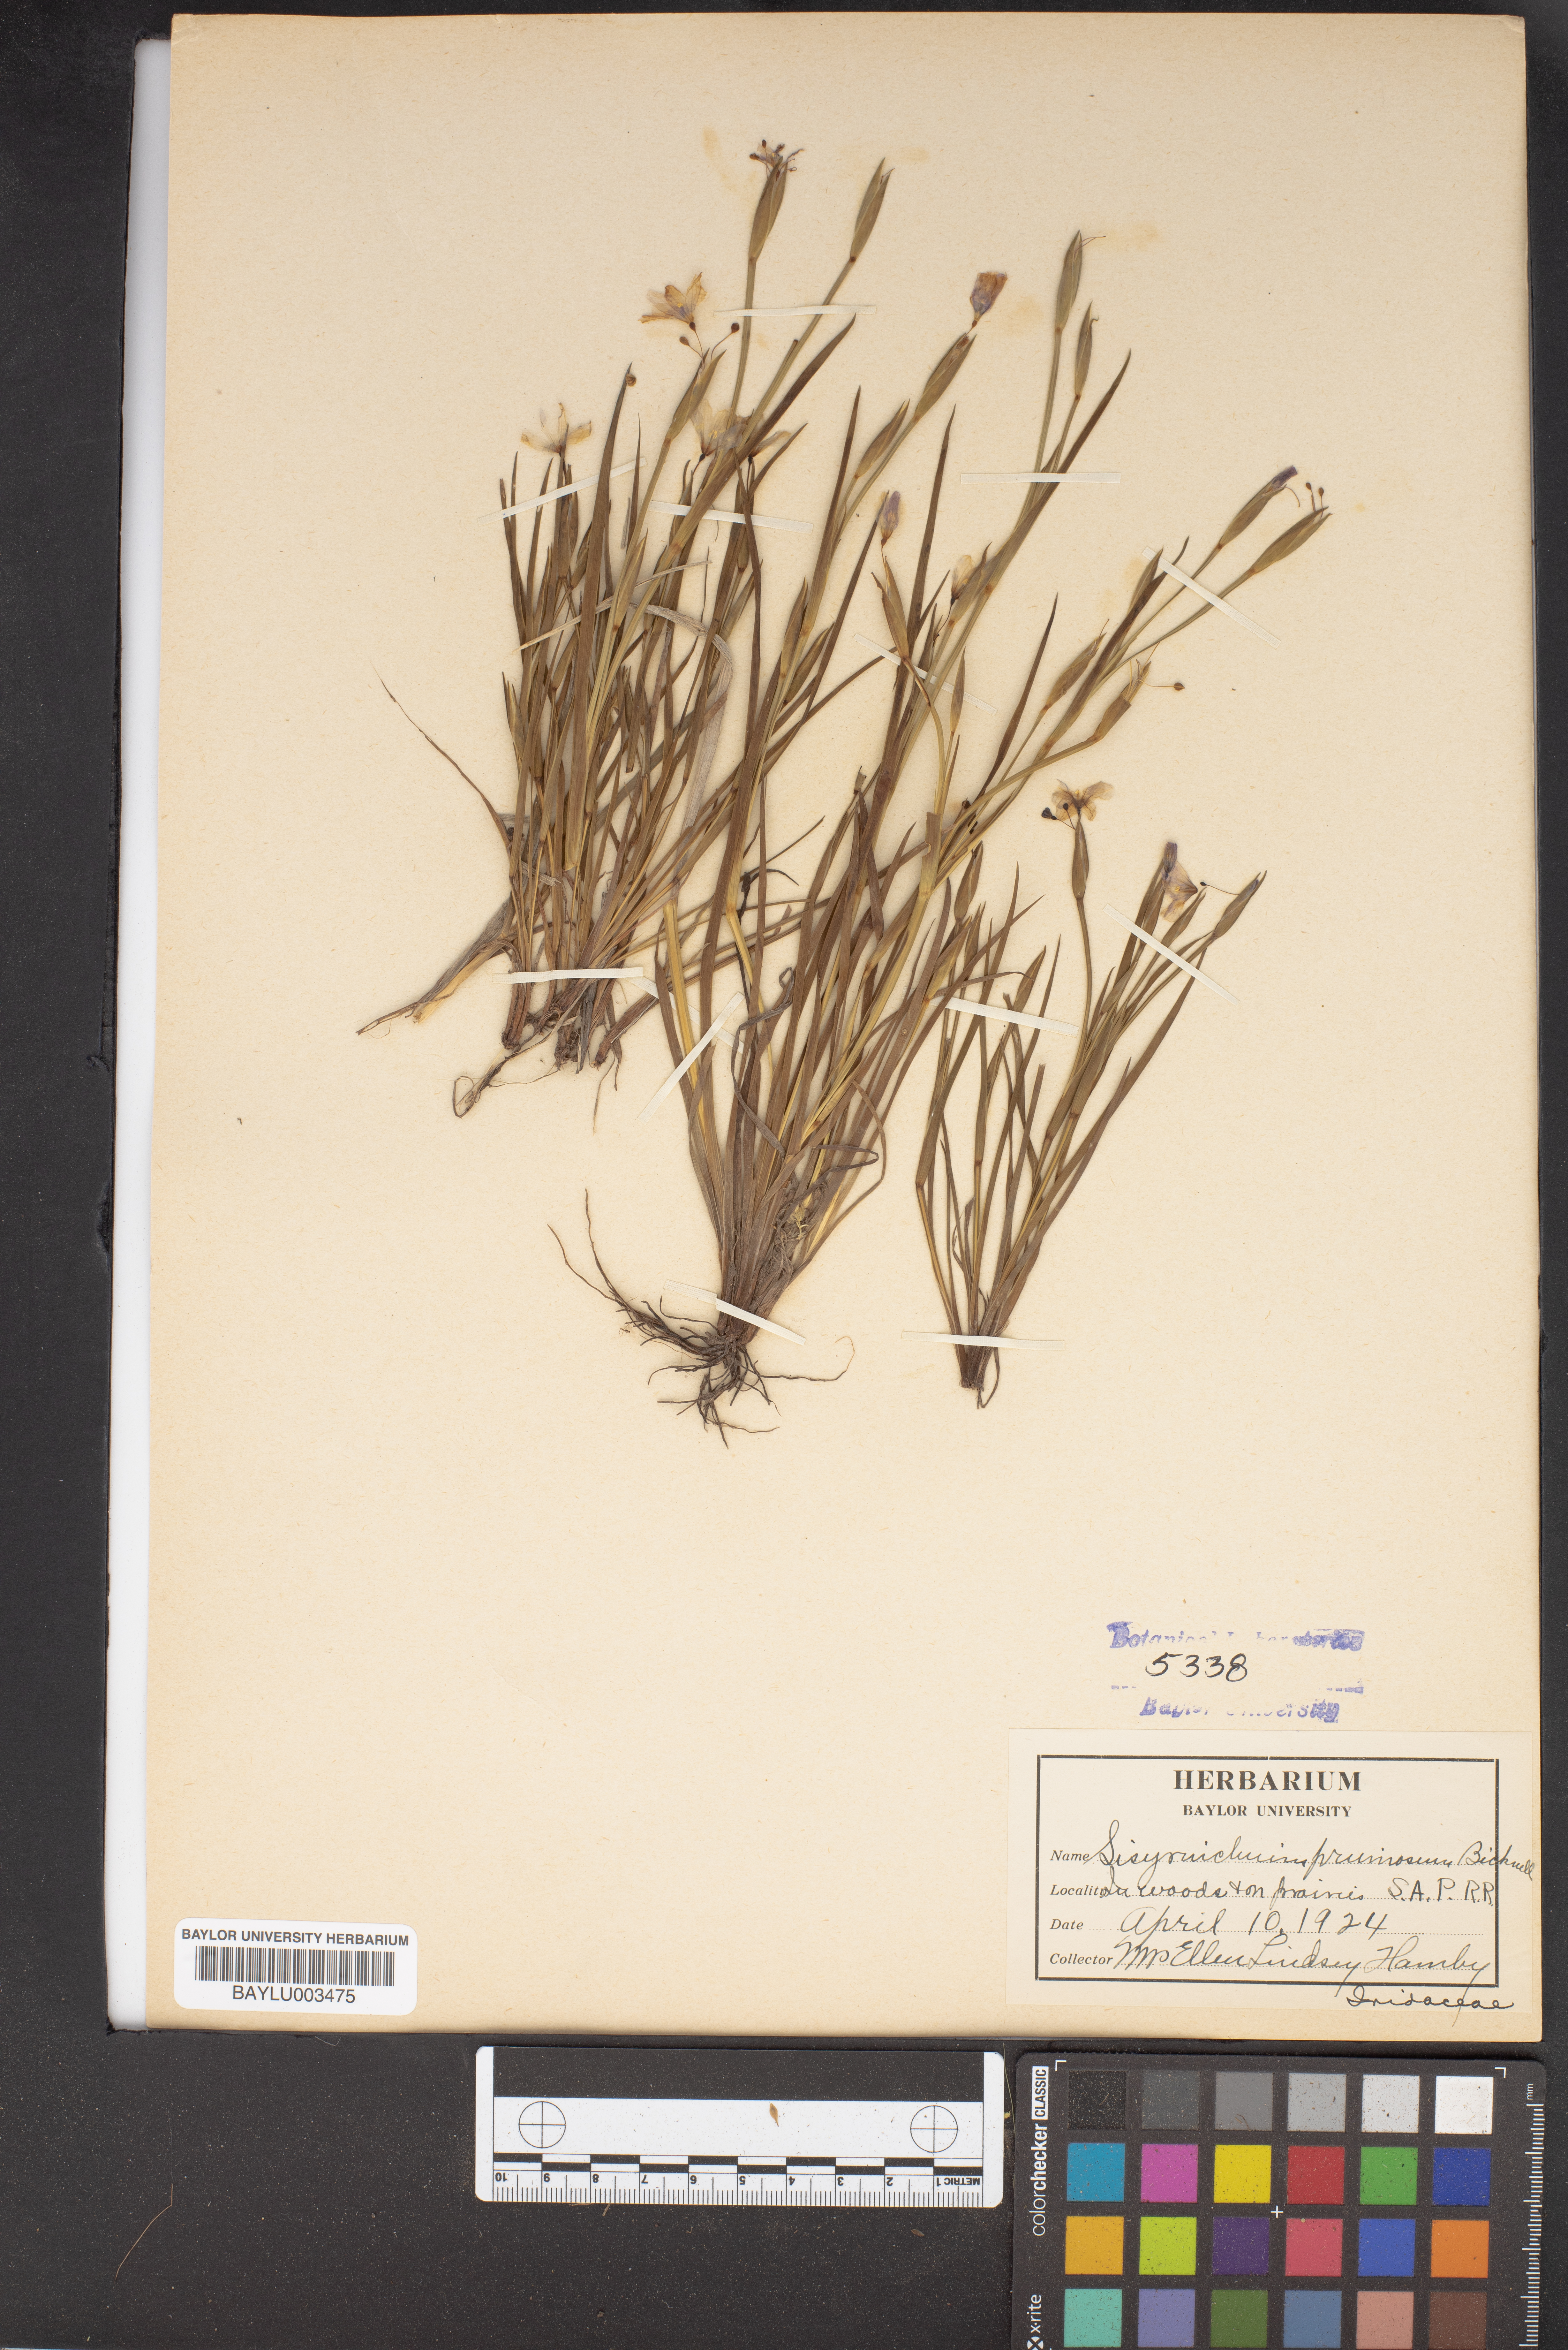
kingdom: Plantae
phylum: Tracheophyta
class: Liliopsida
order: Asparagales
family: Iridaceae
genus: Sisyrinchium
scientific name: Sisyrinchium pruinosum
